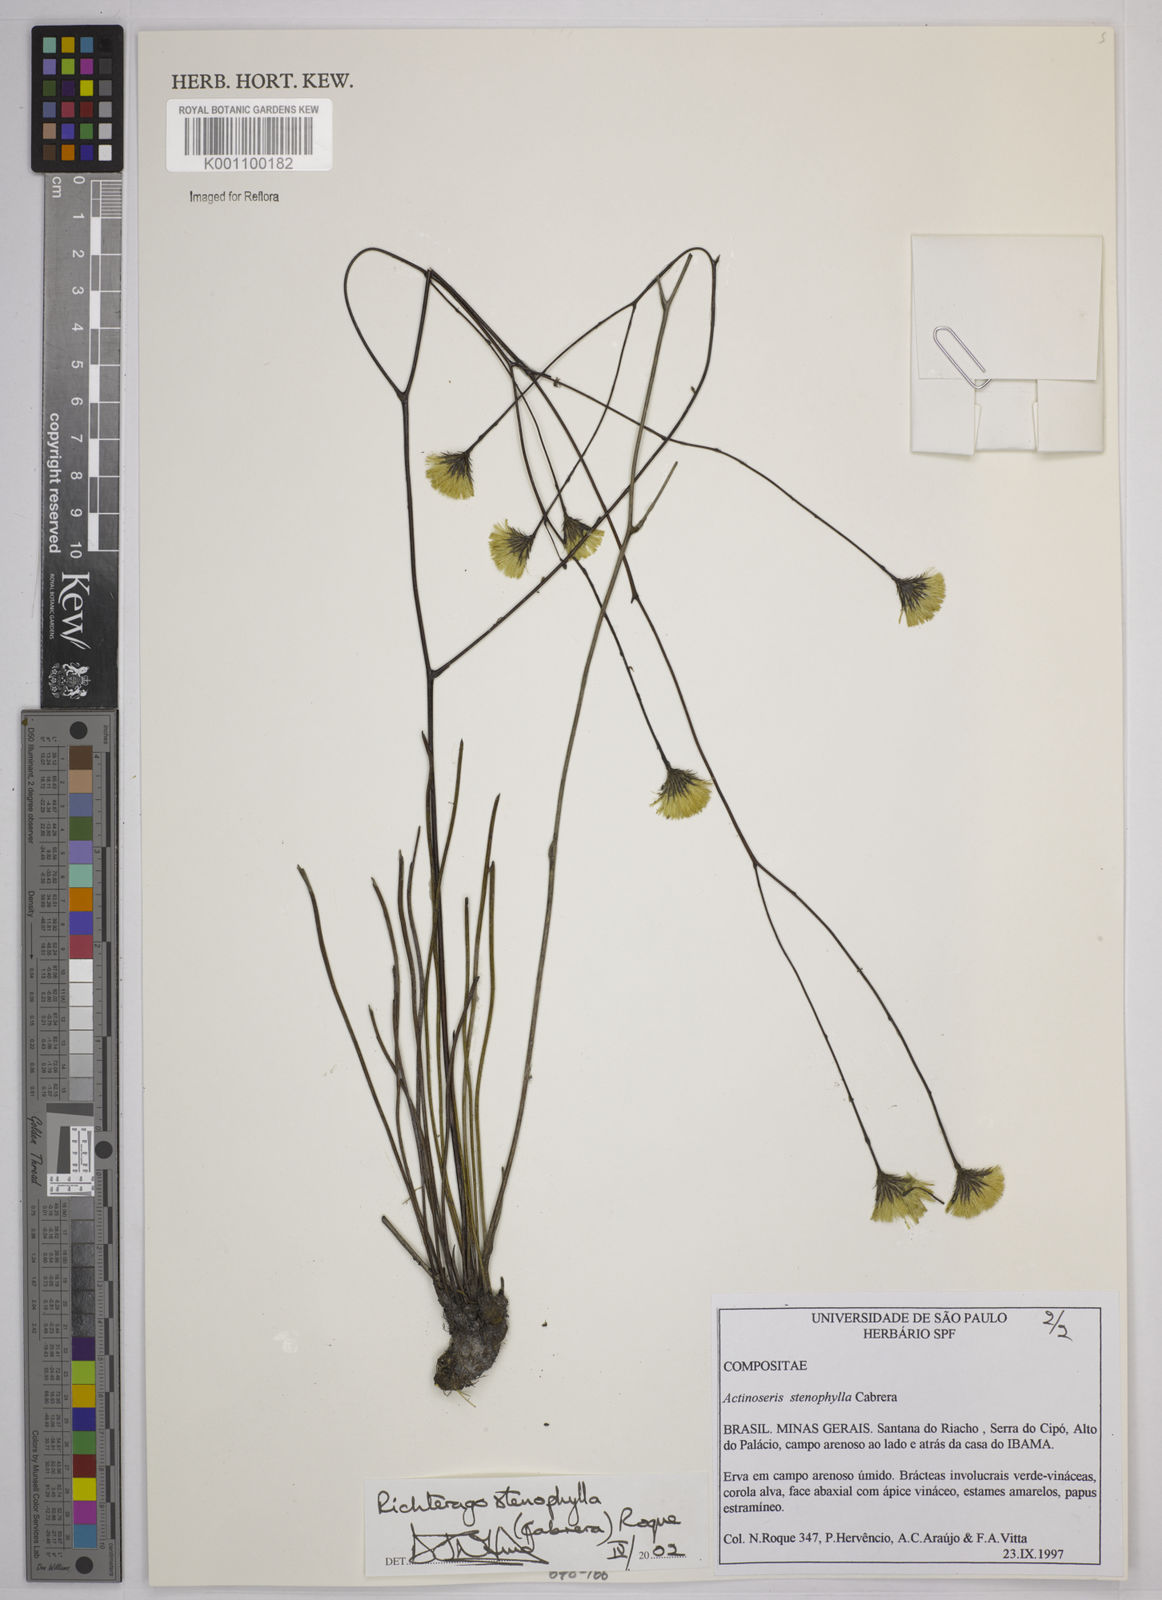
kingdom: Plantae
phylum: Tracheophyta
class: Magnoliopsida
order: Asterales
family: Asteraceae
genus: Richterago
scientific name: Richterago stenophylla
